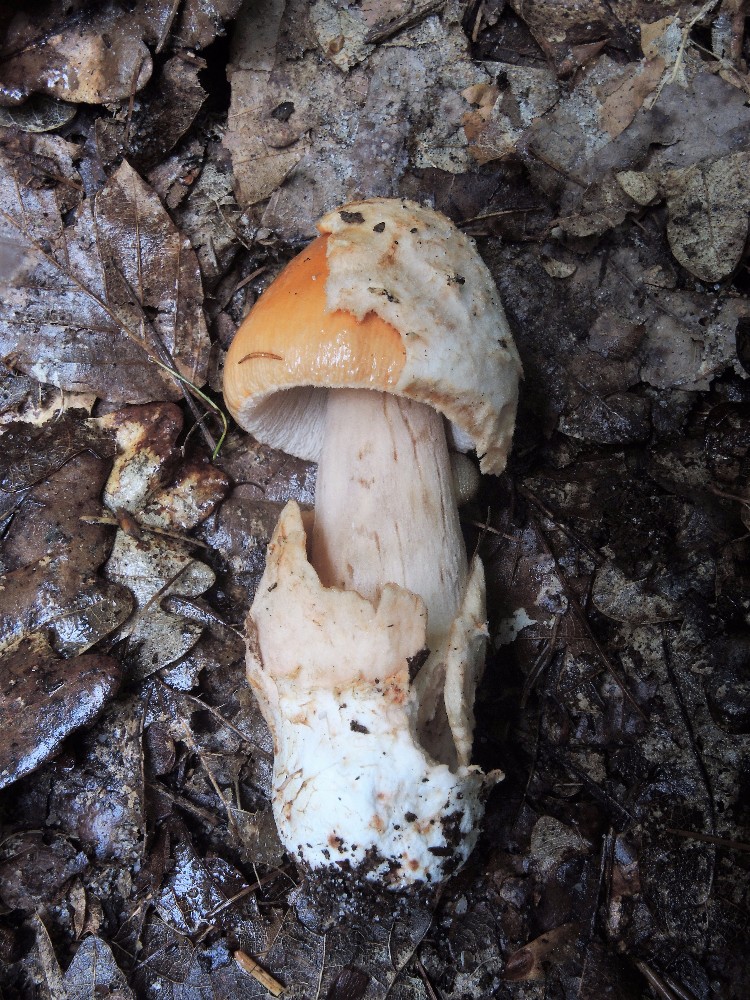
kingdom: Fungi
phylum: Basidiomycota
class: Agaricomycetes
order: Agaricales
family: Amanitaceae
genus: Amanita
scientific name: Amanita fulva
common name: brun kam-fluesvamp
